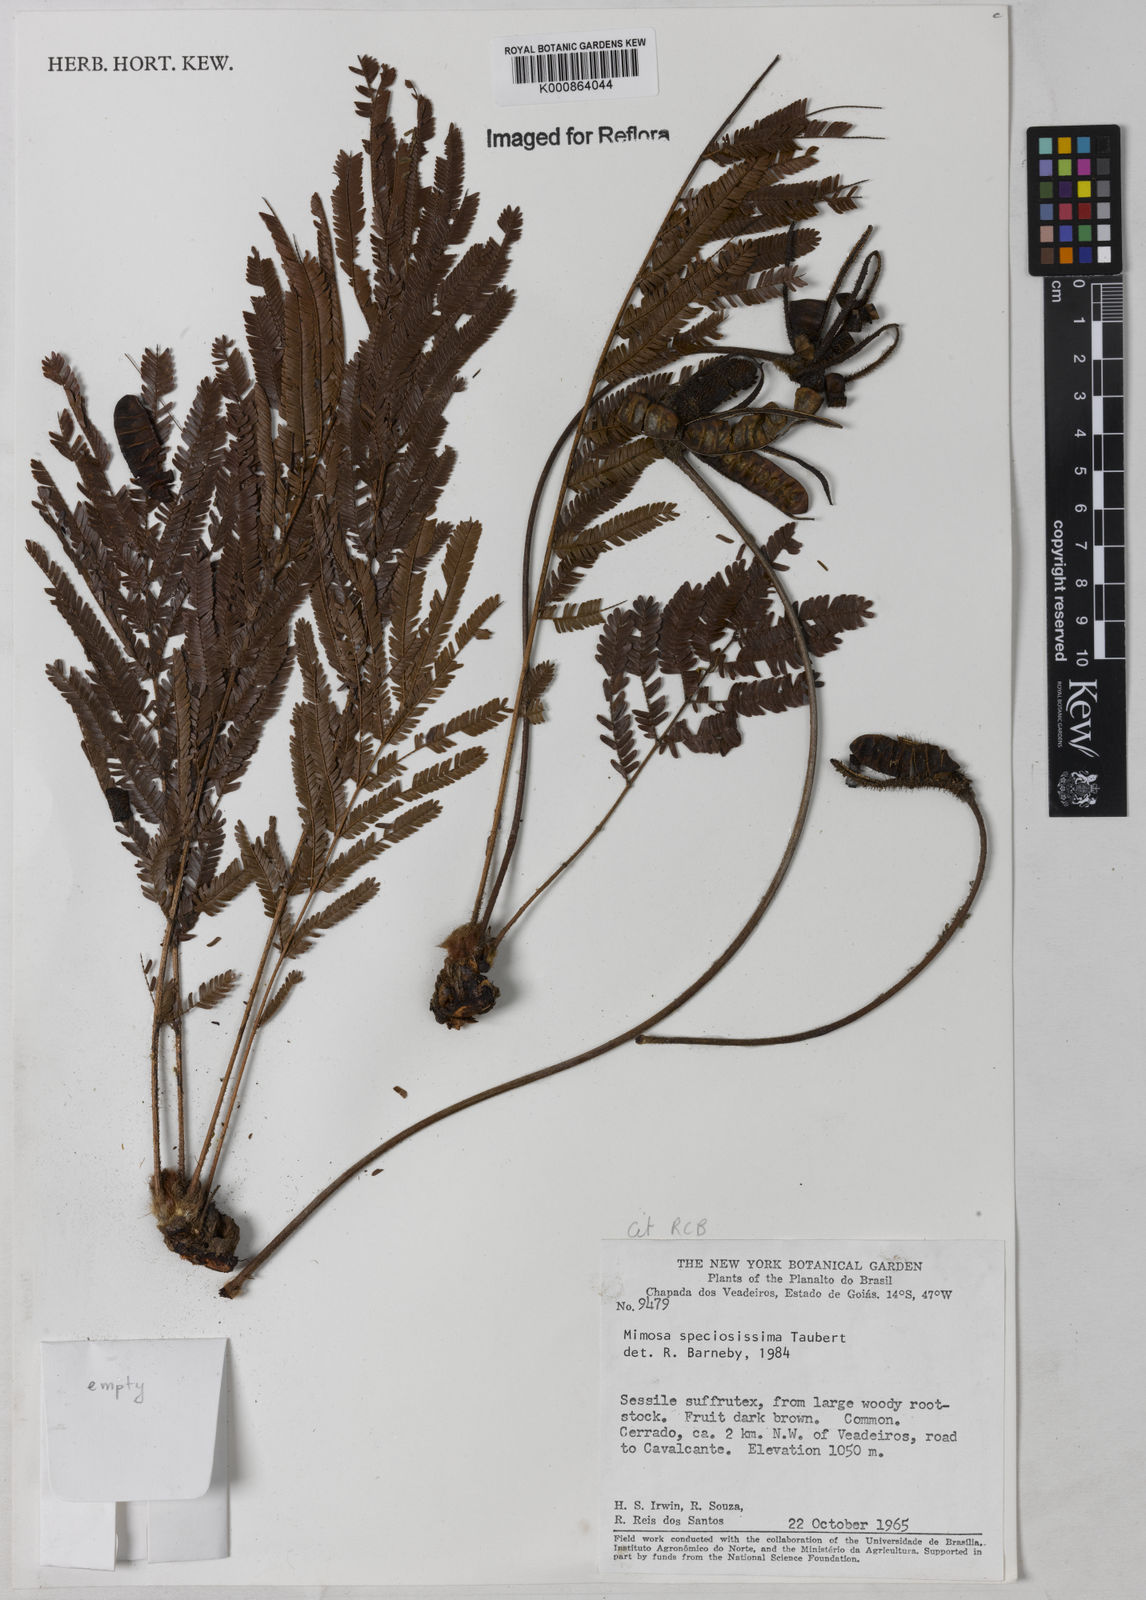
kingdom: Plantae
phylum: Tracheophyta
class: Magnoliopsida
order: Fabales
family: Fabaceae
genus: Mimosa
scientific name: Mimosa speciosissima
